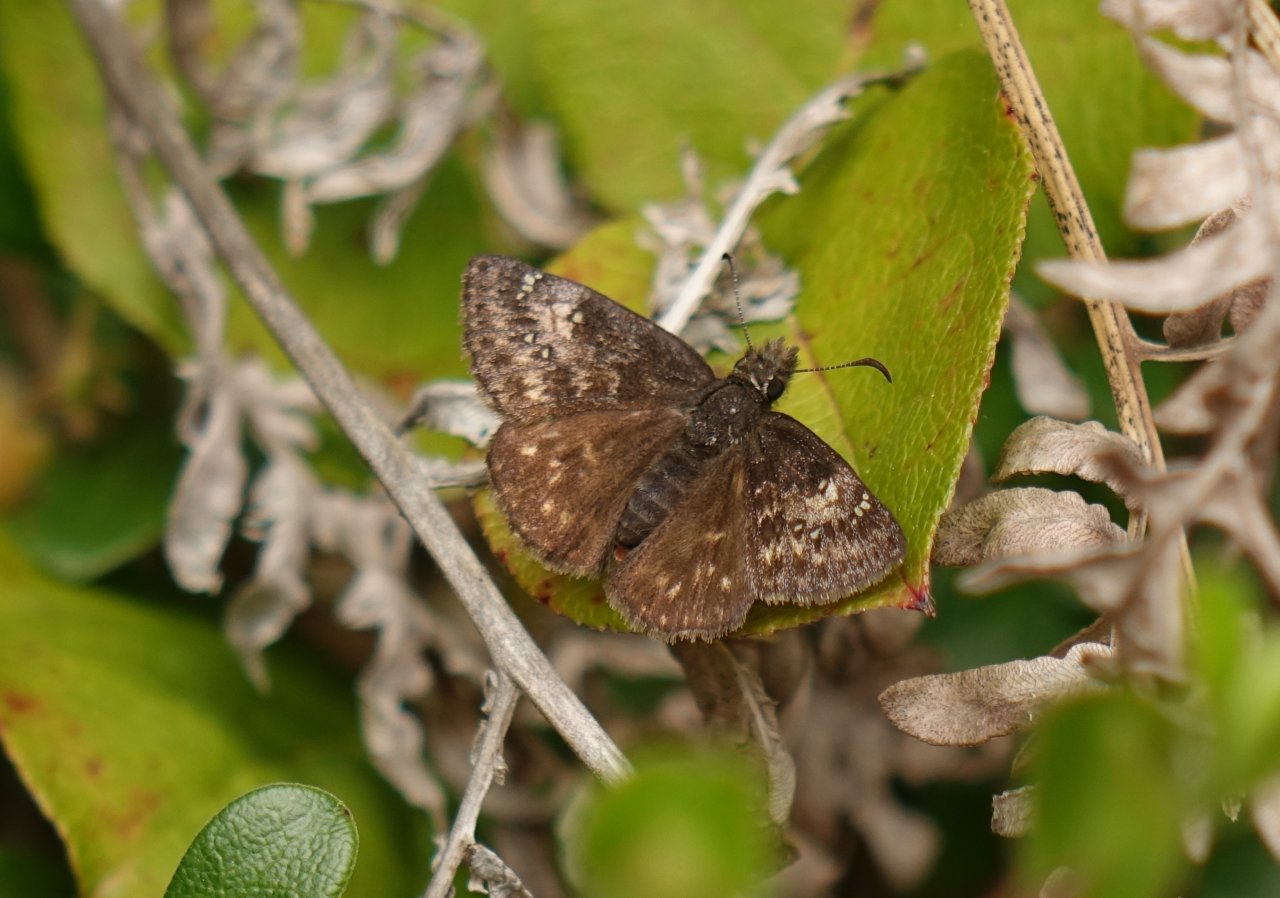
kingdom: Animalia
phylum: Arthropoda
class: Insecta
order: Lepidoptera
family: Hesperiidae
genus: Erynnis
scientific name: Erynnis
